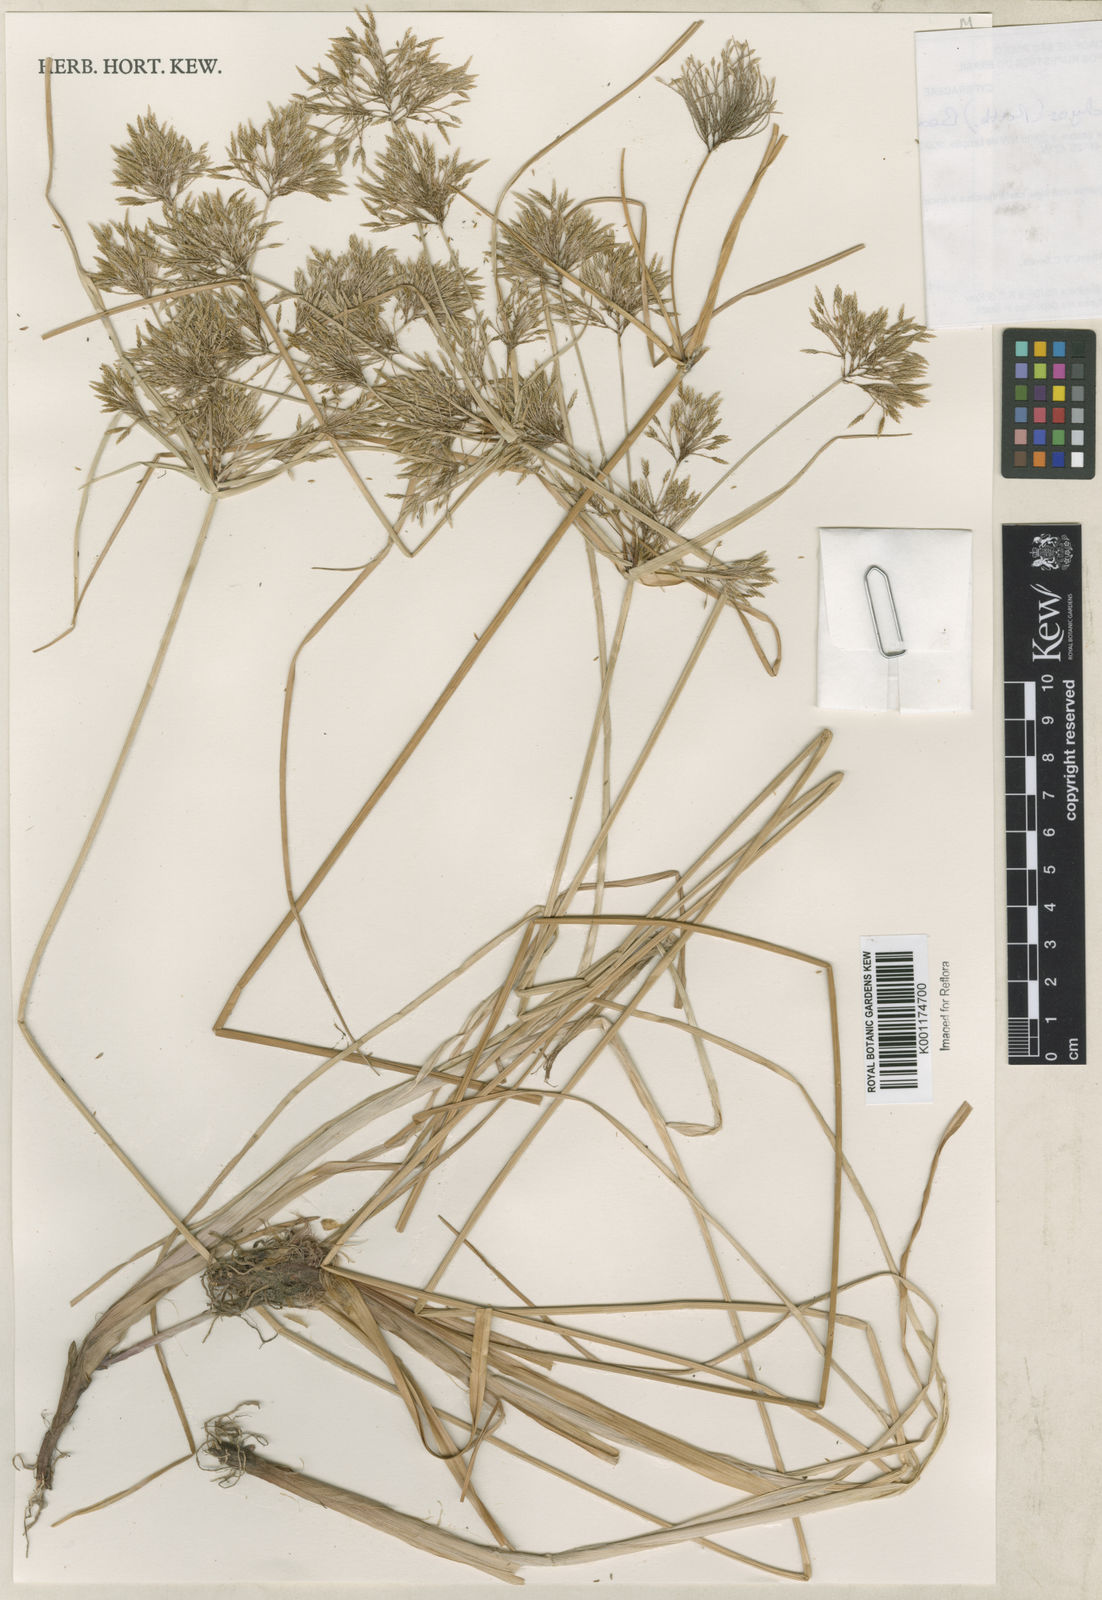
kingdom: Plantae
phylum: Tracheophyta
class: Liliopsida
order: Poales
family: Cyperaceae
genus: Cyperus
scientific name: Cyperus polystachyos
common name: Bunchy flat sedge
